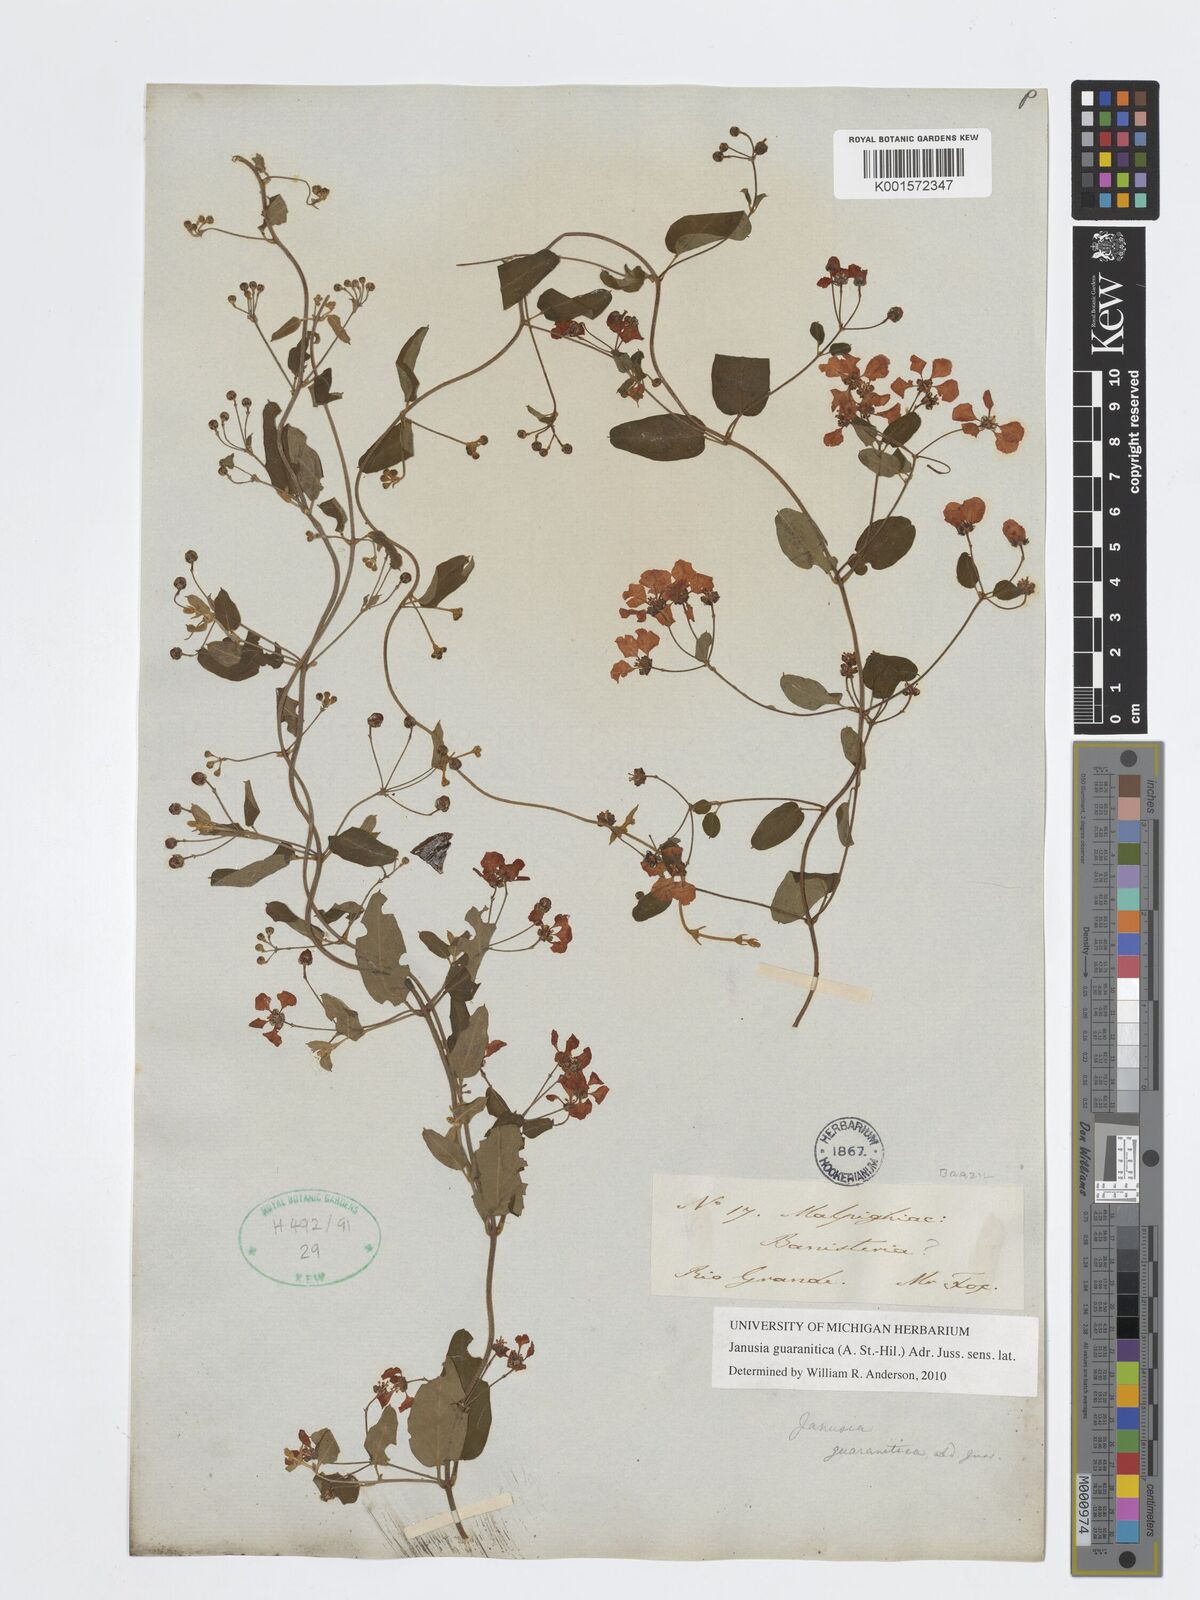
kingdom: Plantae
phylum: Tracheophyta
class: Magnoliopsida
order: Malpighiales
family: Malpighiaceae
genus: Janusia
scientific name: Janusia guaranitica
